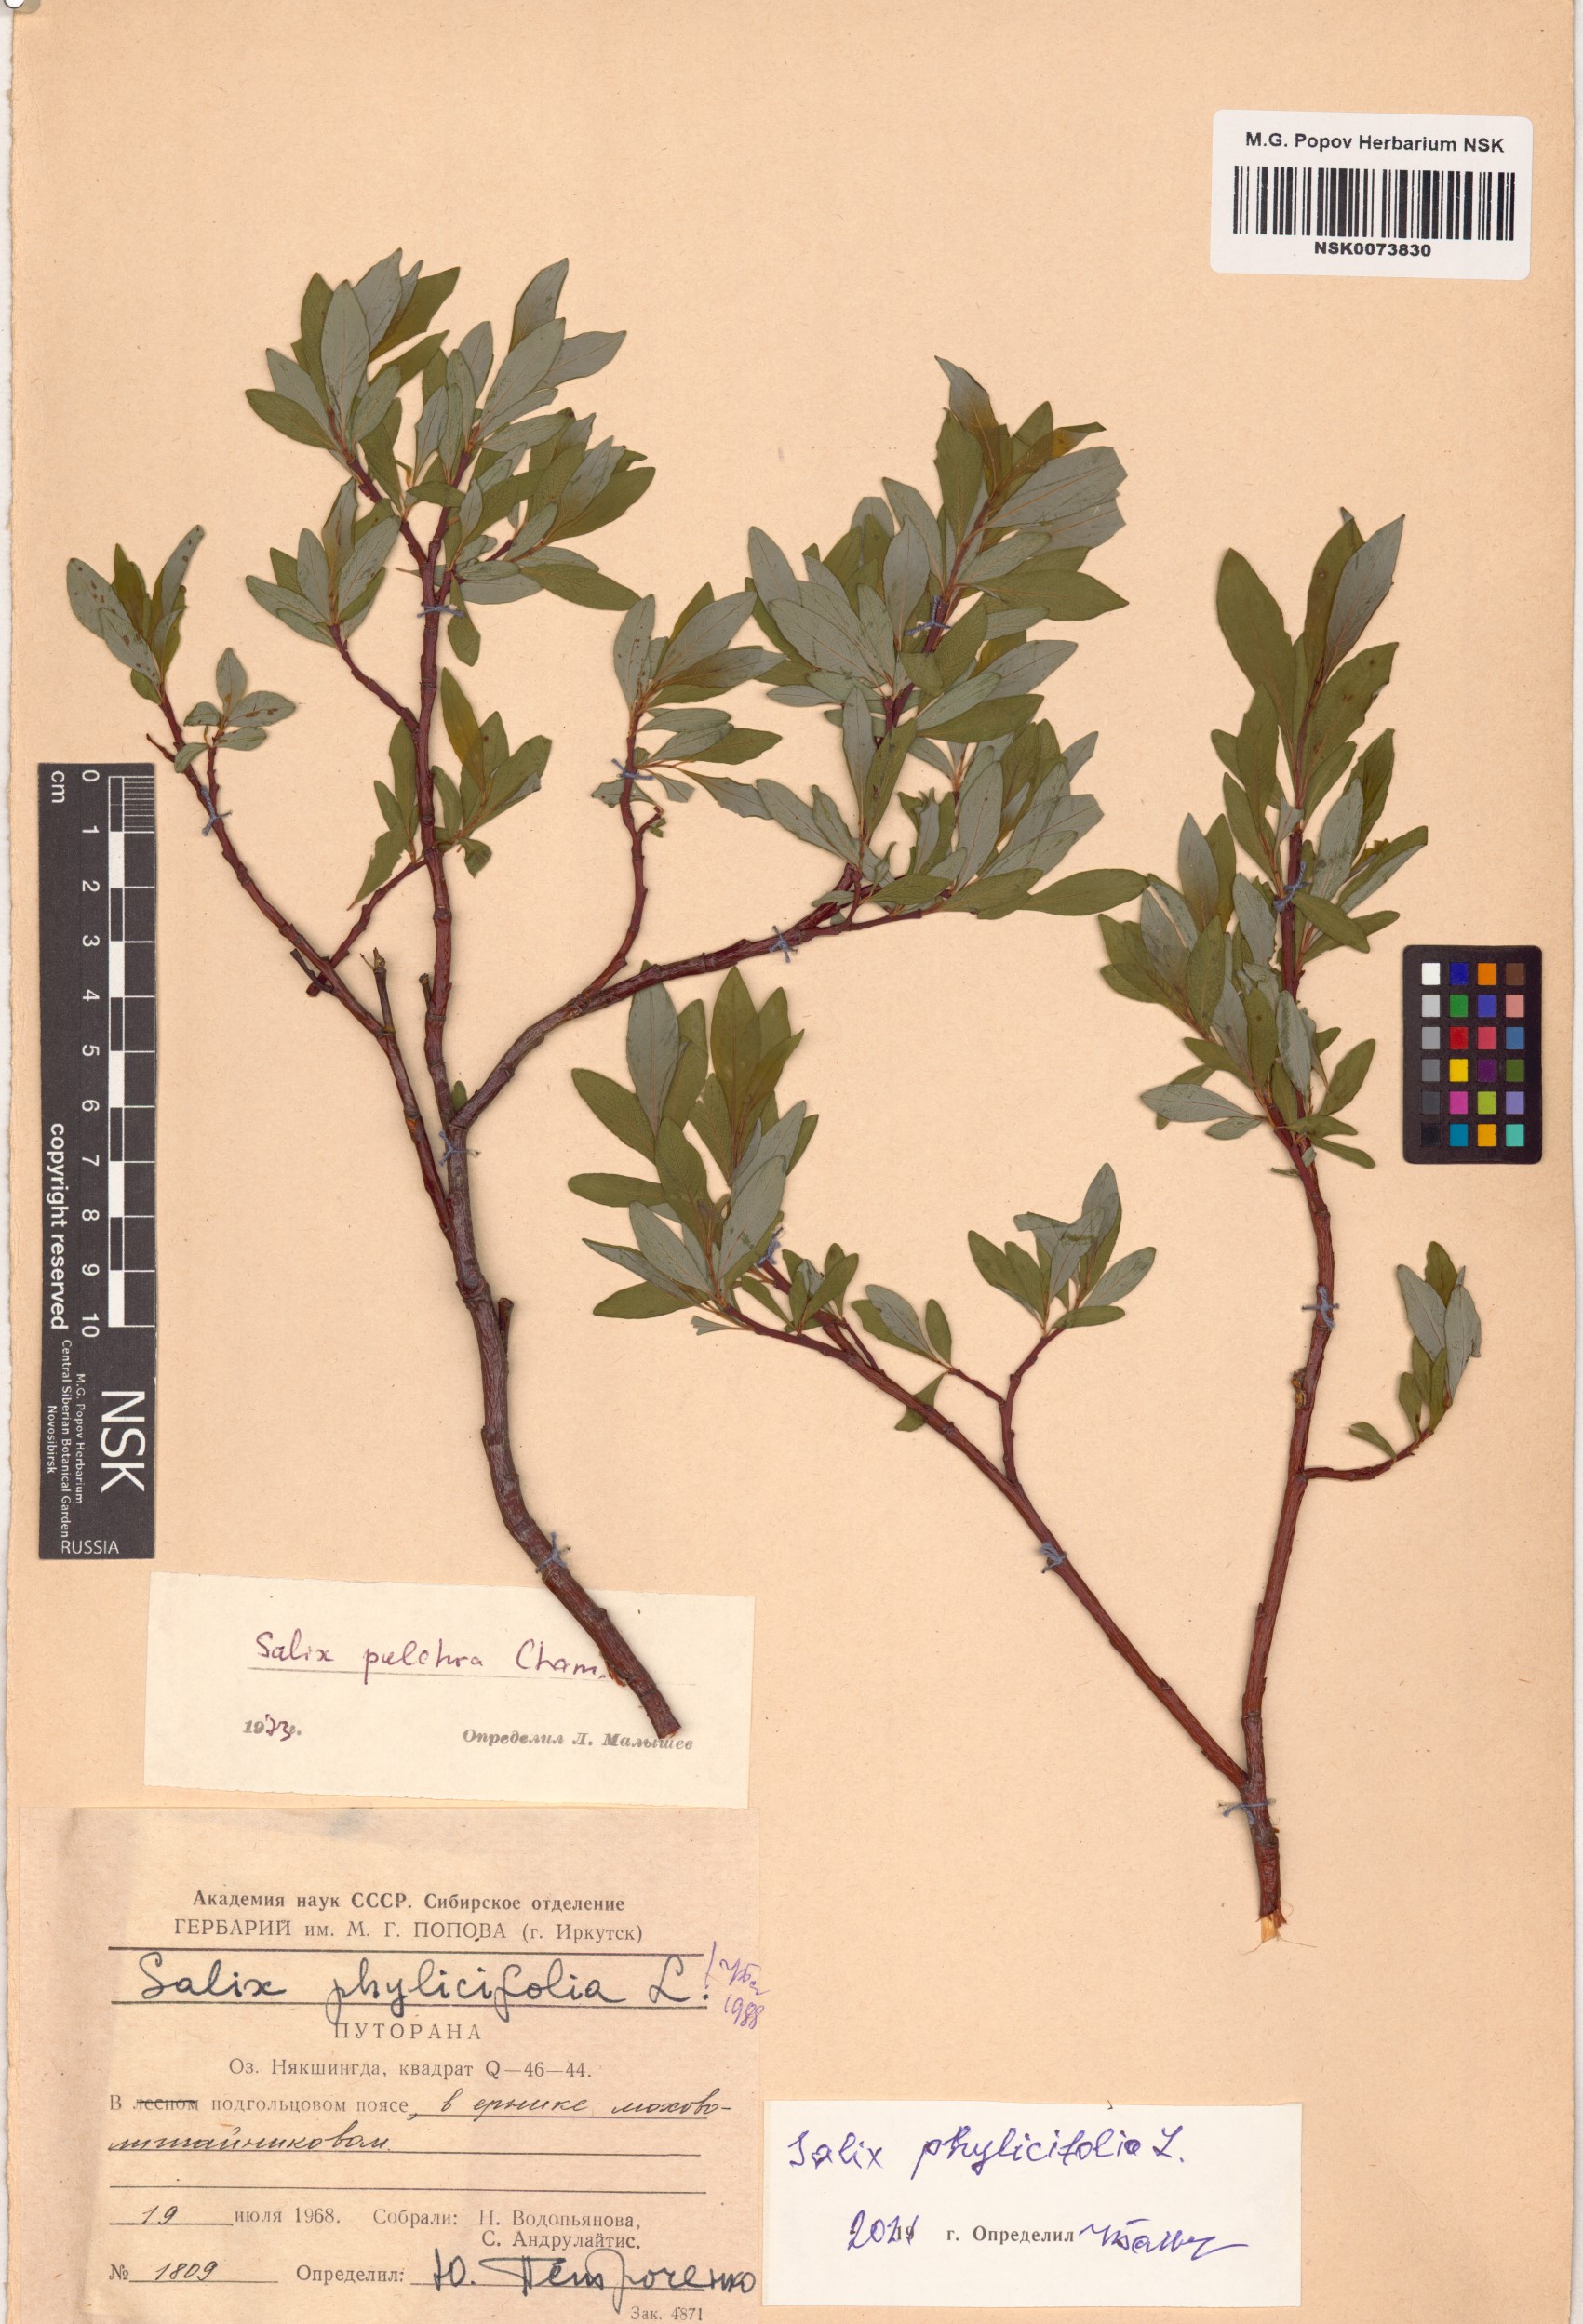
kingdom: Plantae
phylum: Tracheophyta
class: Magnoliopsida
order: Malpighiales
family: Salicaceae
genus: Salix
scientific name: Salix phylicifolia
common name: Tea-leaved willow
